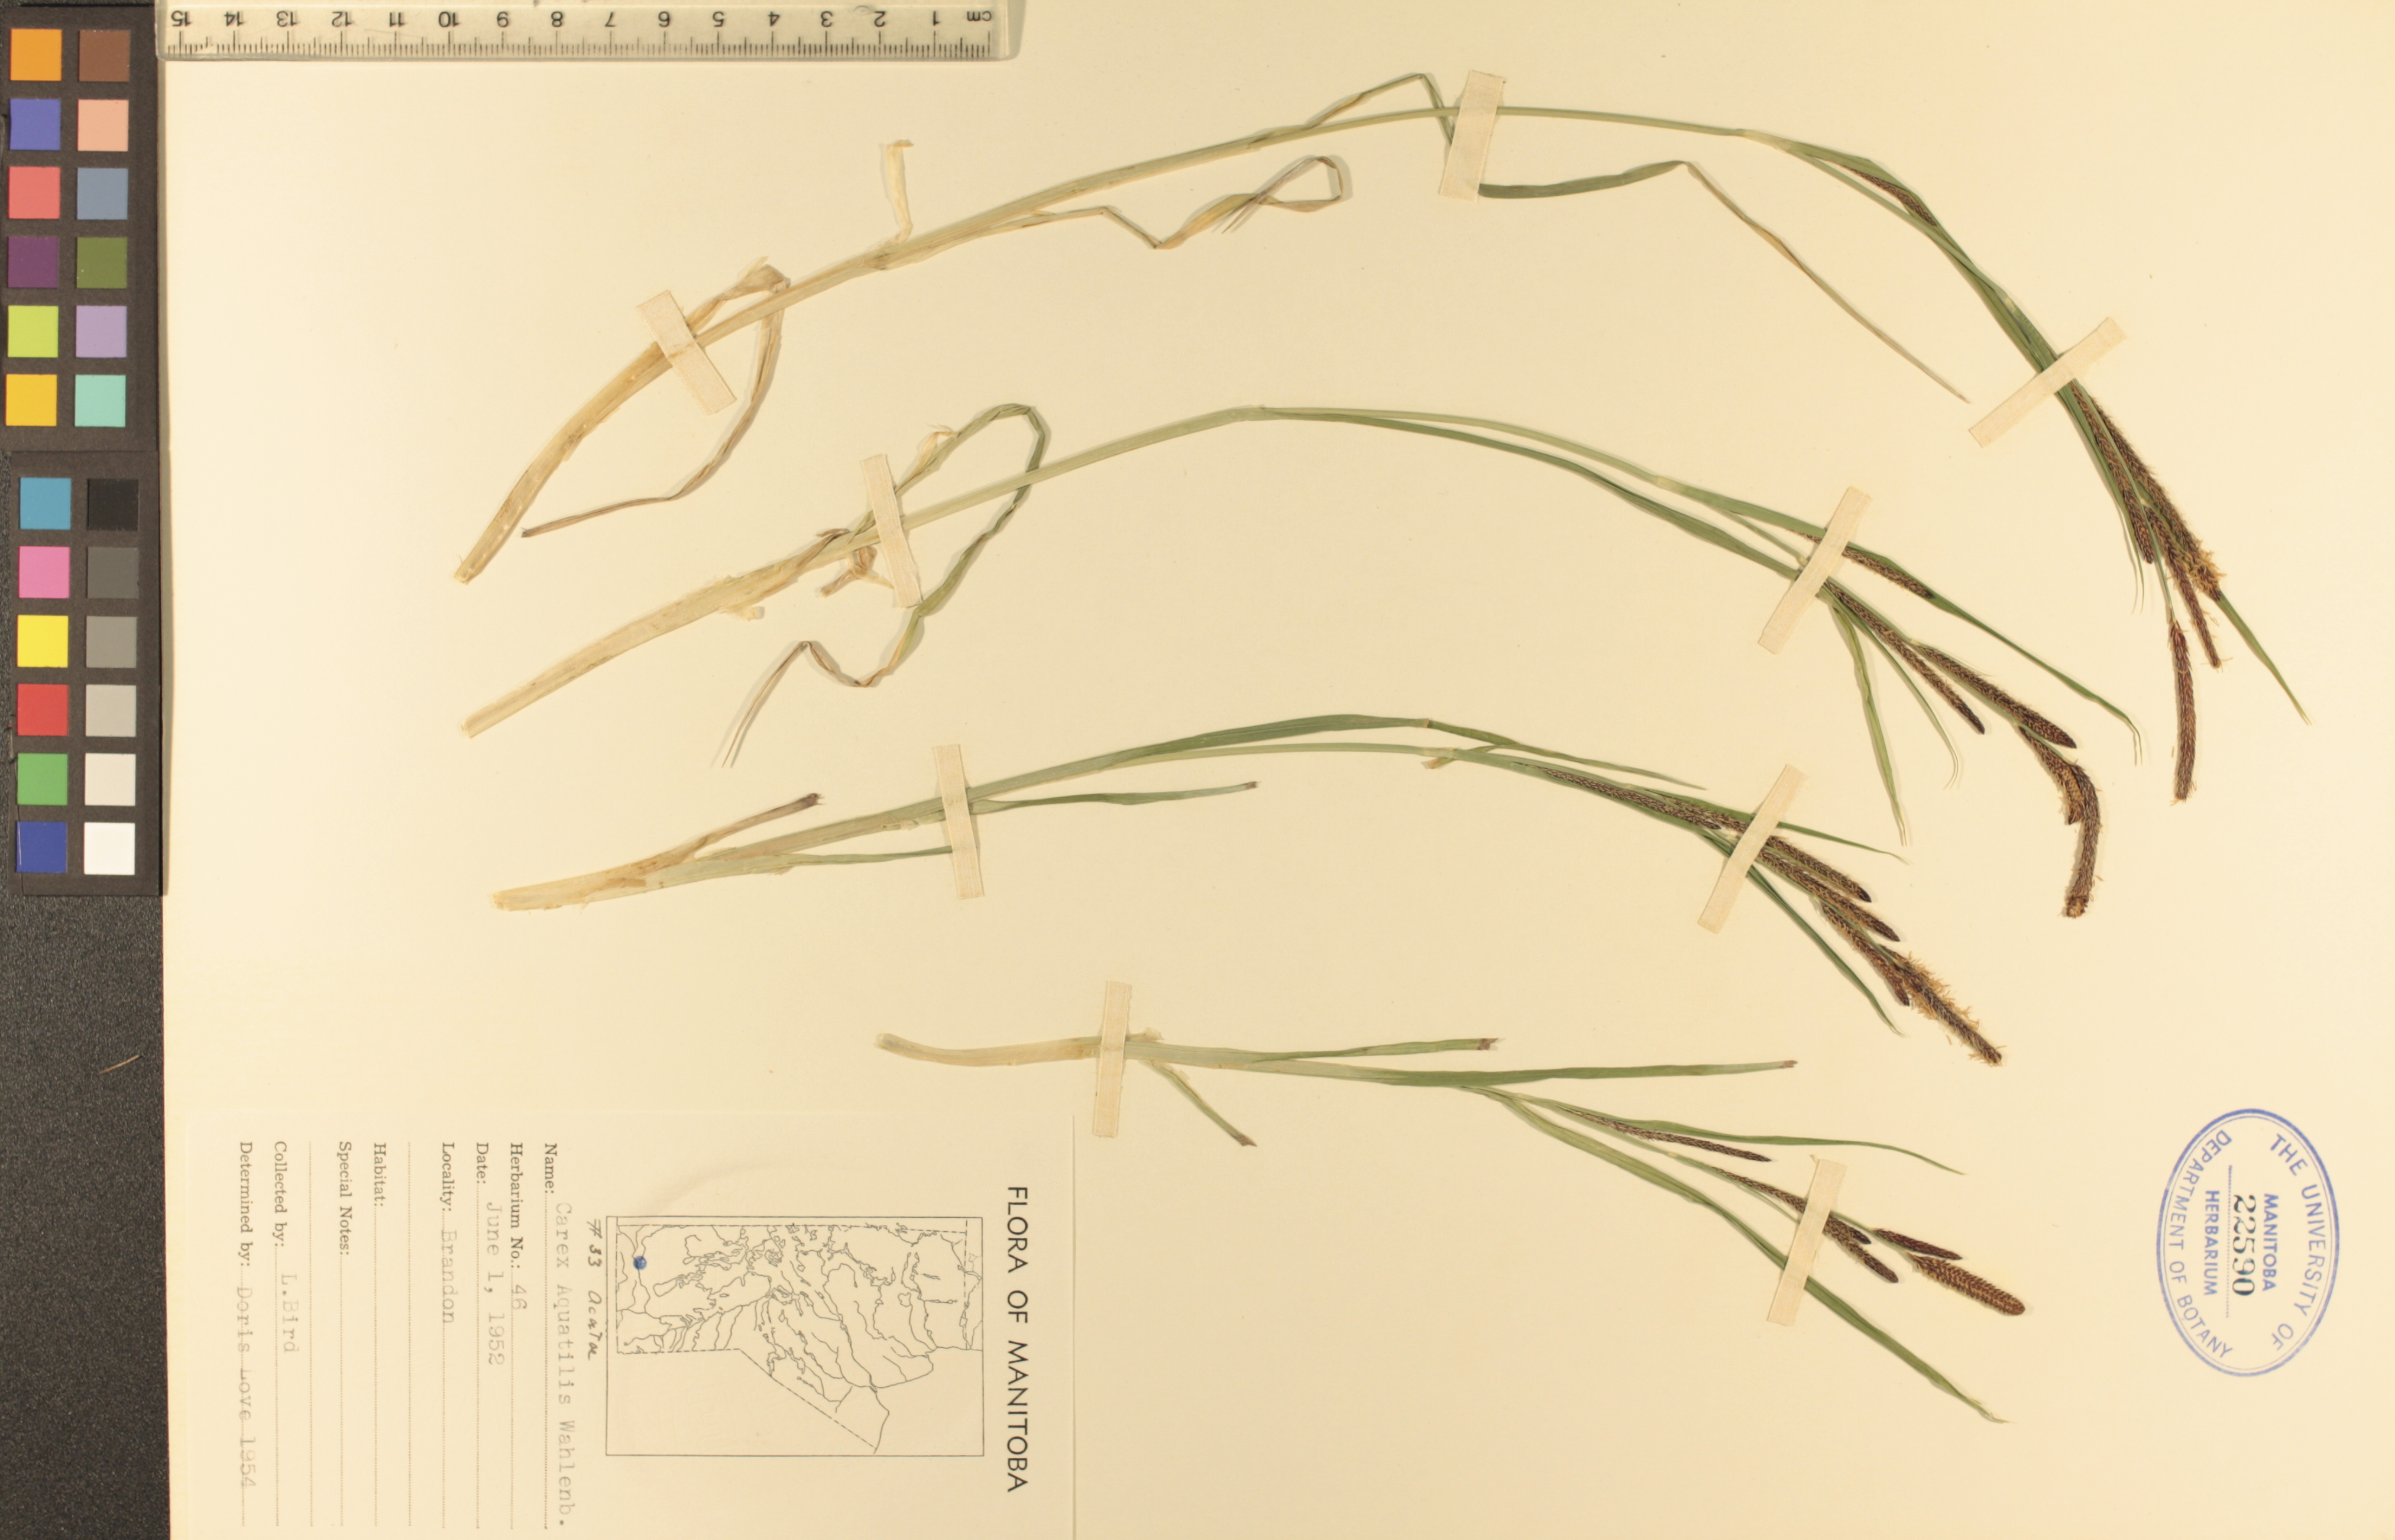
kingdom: Plantae
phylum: Tracheophyta
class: Liliopsida
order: Poales
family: Cyperaceae
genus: Carex
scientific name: Carex aquatilis
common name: Water sedge
